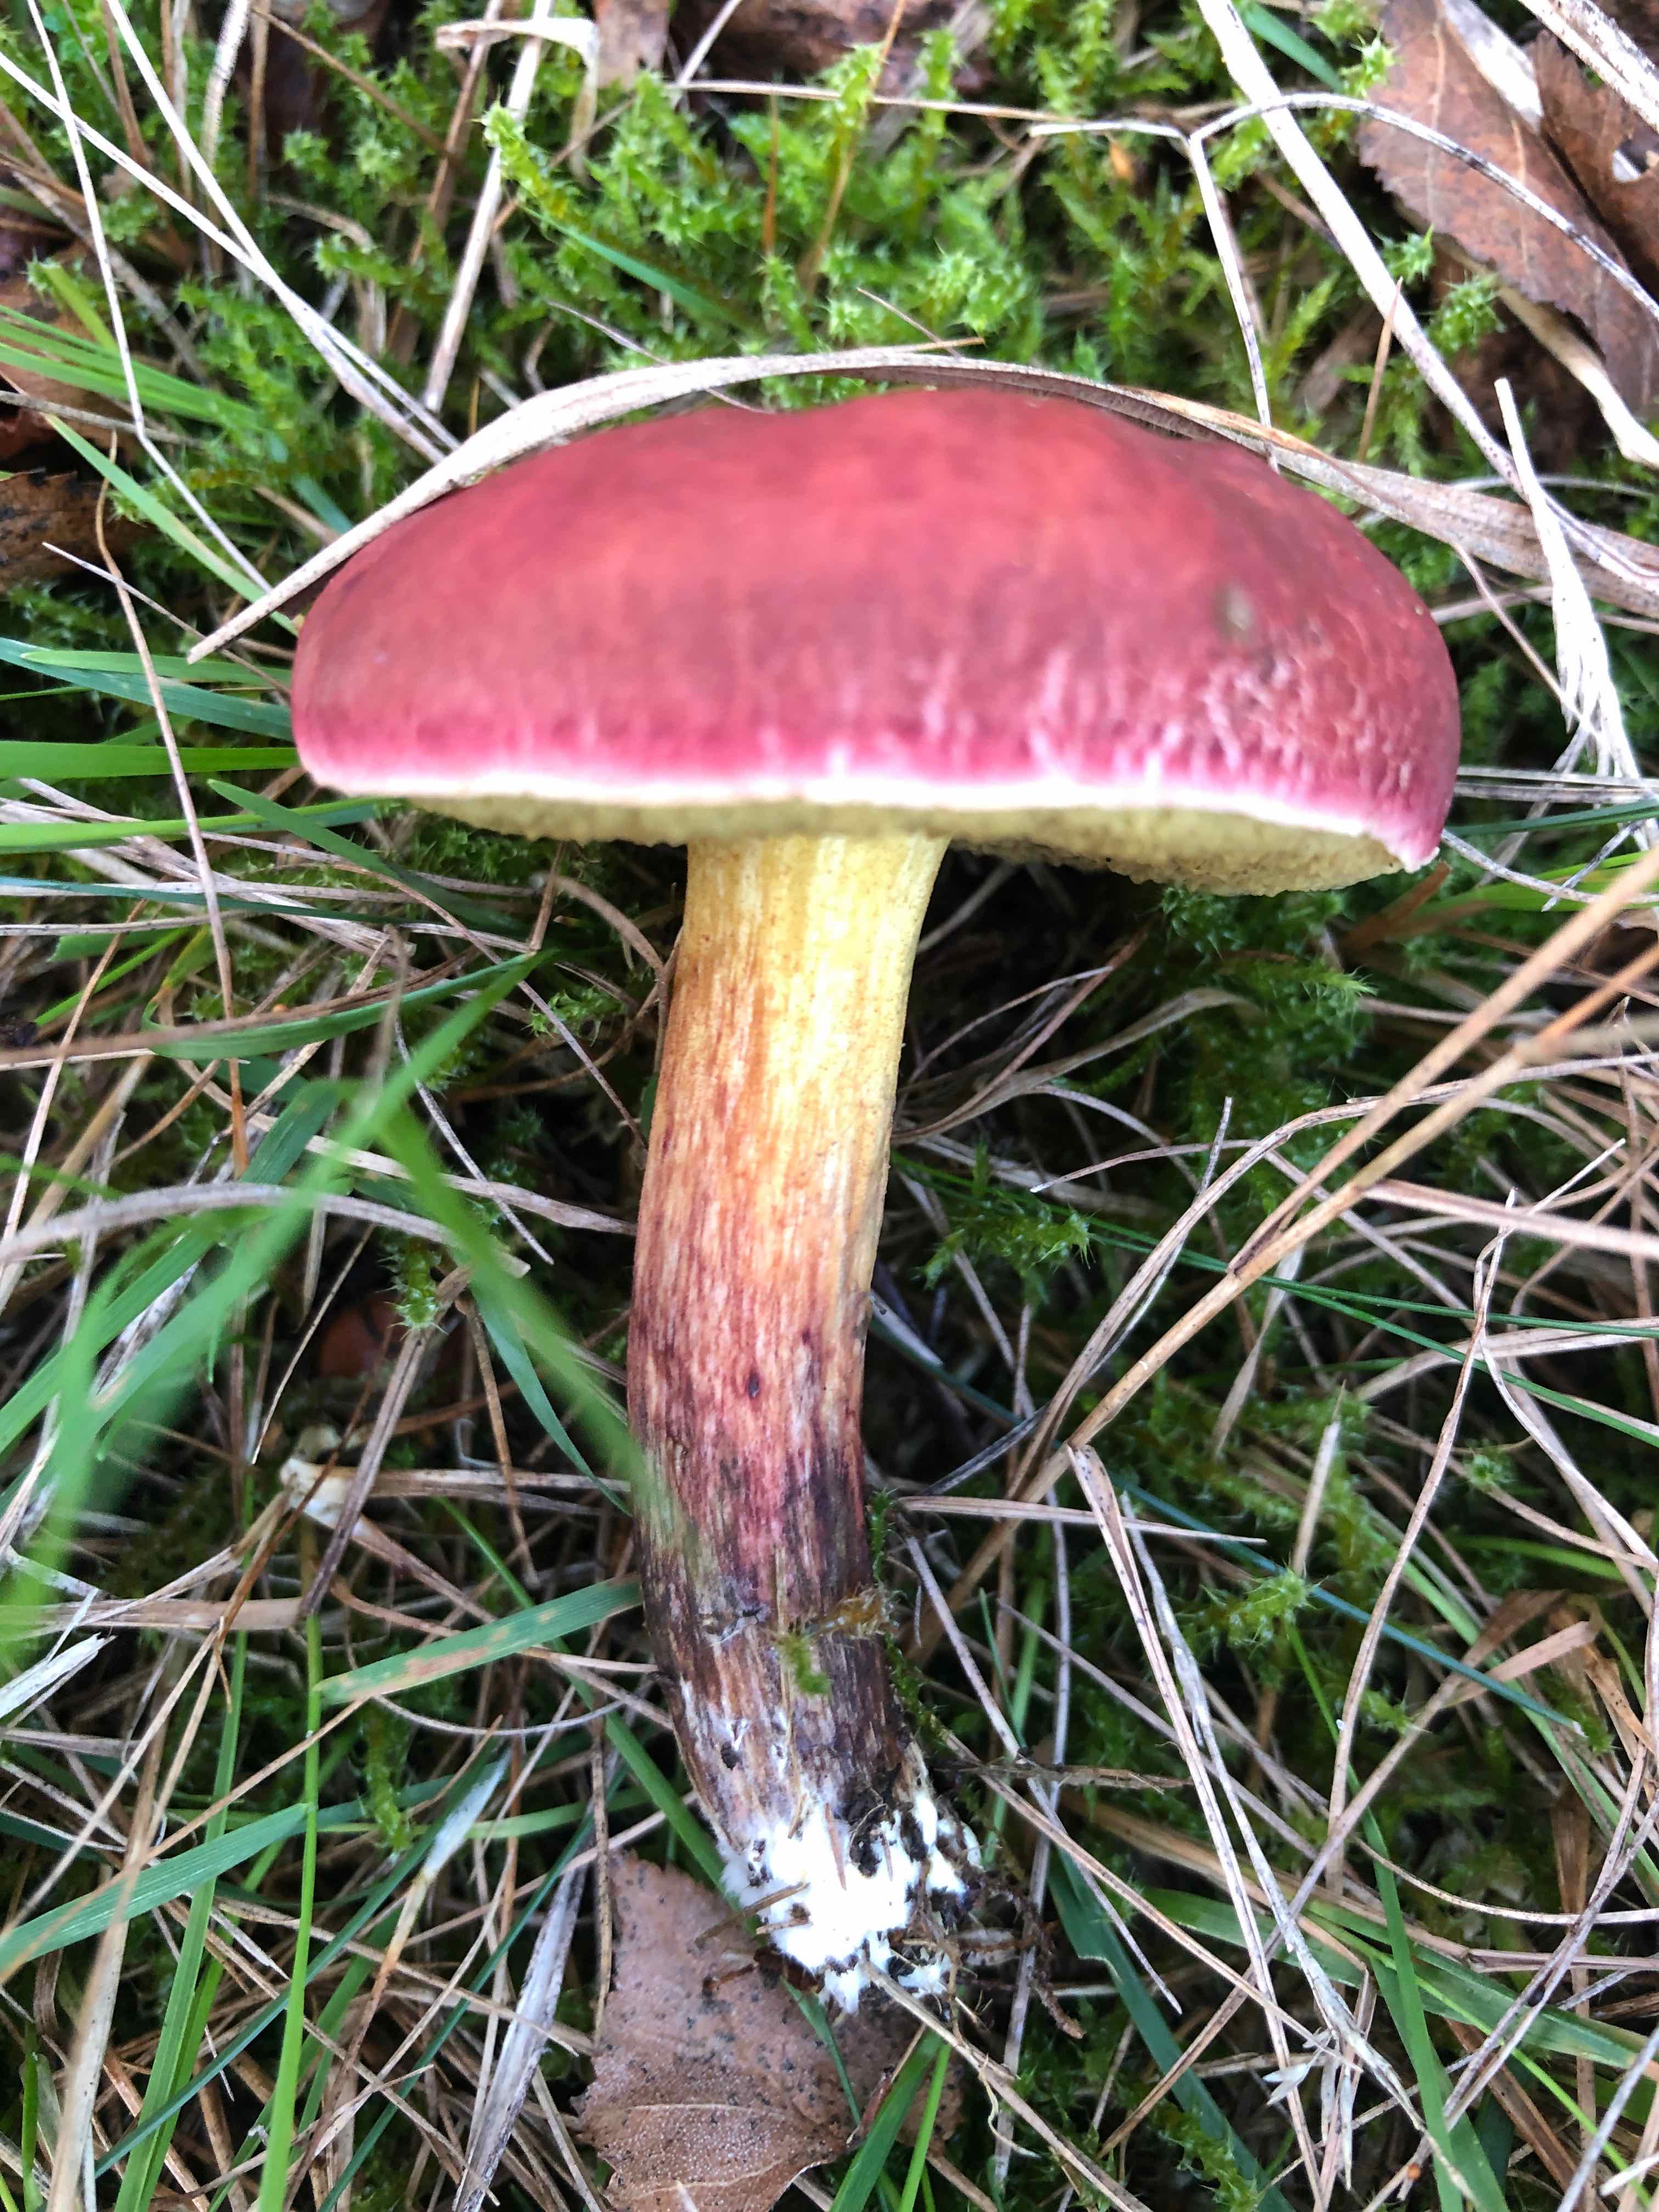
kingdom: Fungi
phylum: Basidiomycota
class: Agaricomycetes
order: Boletales
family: Boletaceae
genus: Hortiboletus
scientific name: Hortiboletus rubellus
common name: blodrød rørhat
